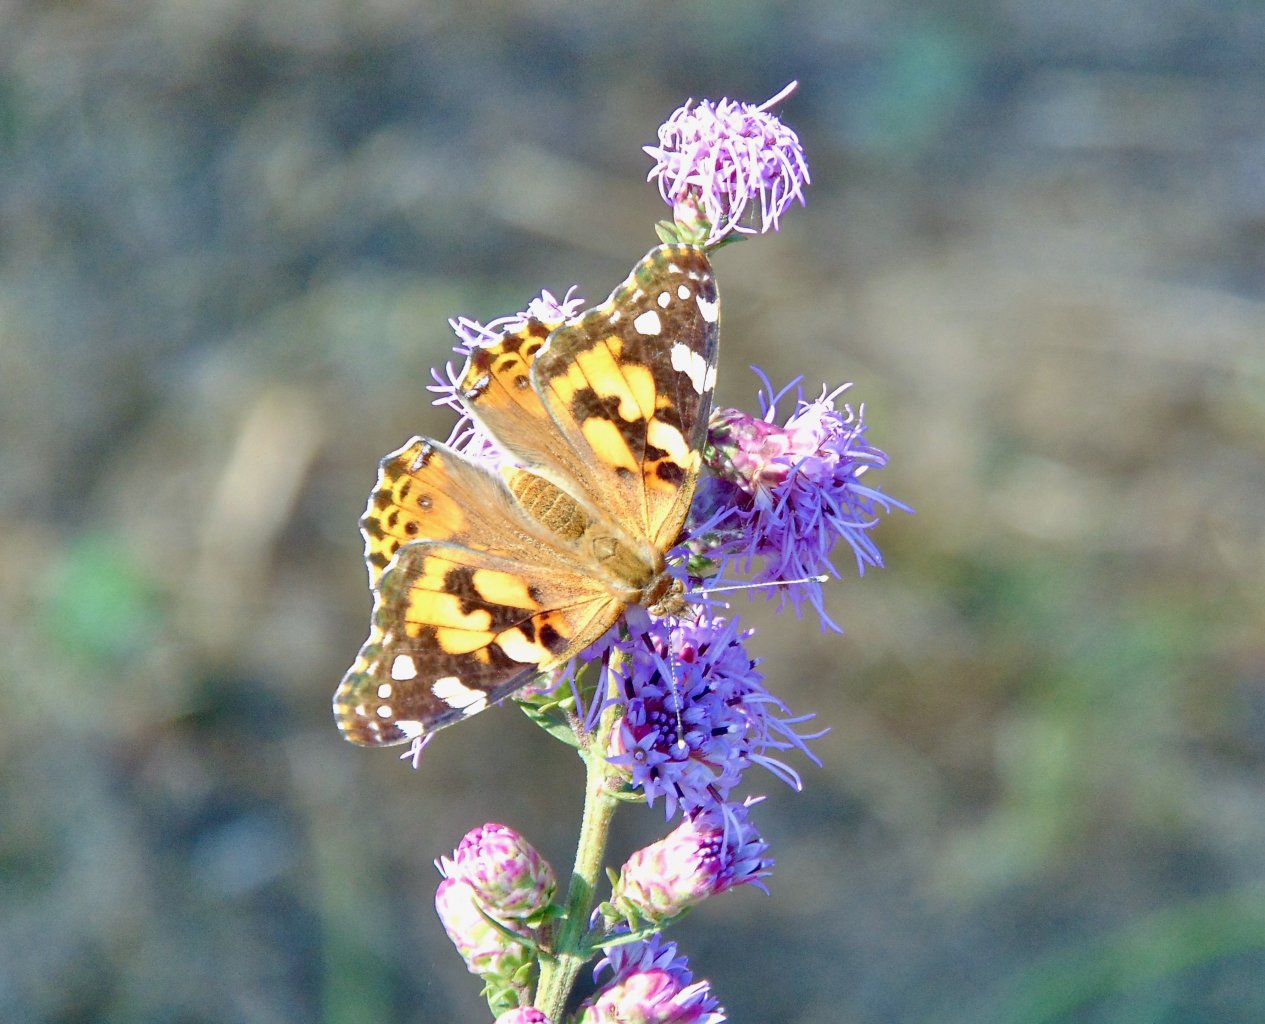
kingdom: Animalia
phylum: Arthropoda
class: Insecta
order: Lepidoptera
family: Nymphalidae
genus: Vanessa
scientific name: Vanessa cardui
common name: Painted Lady
